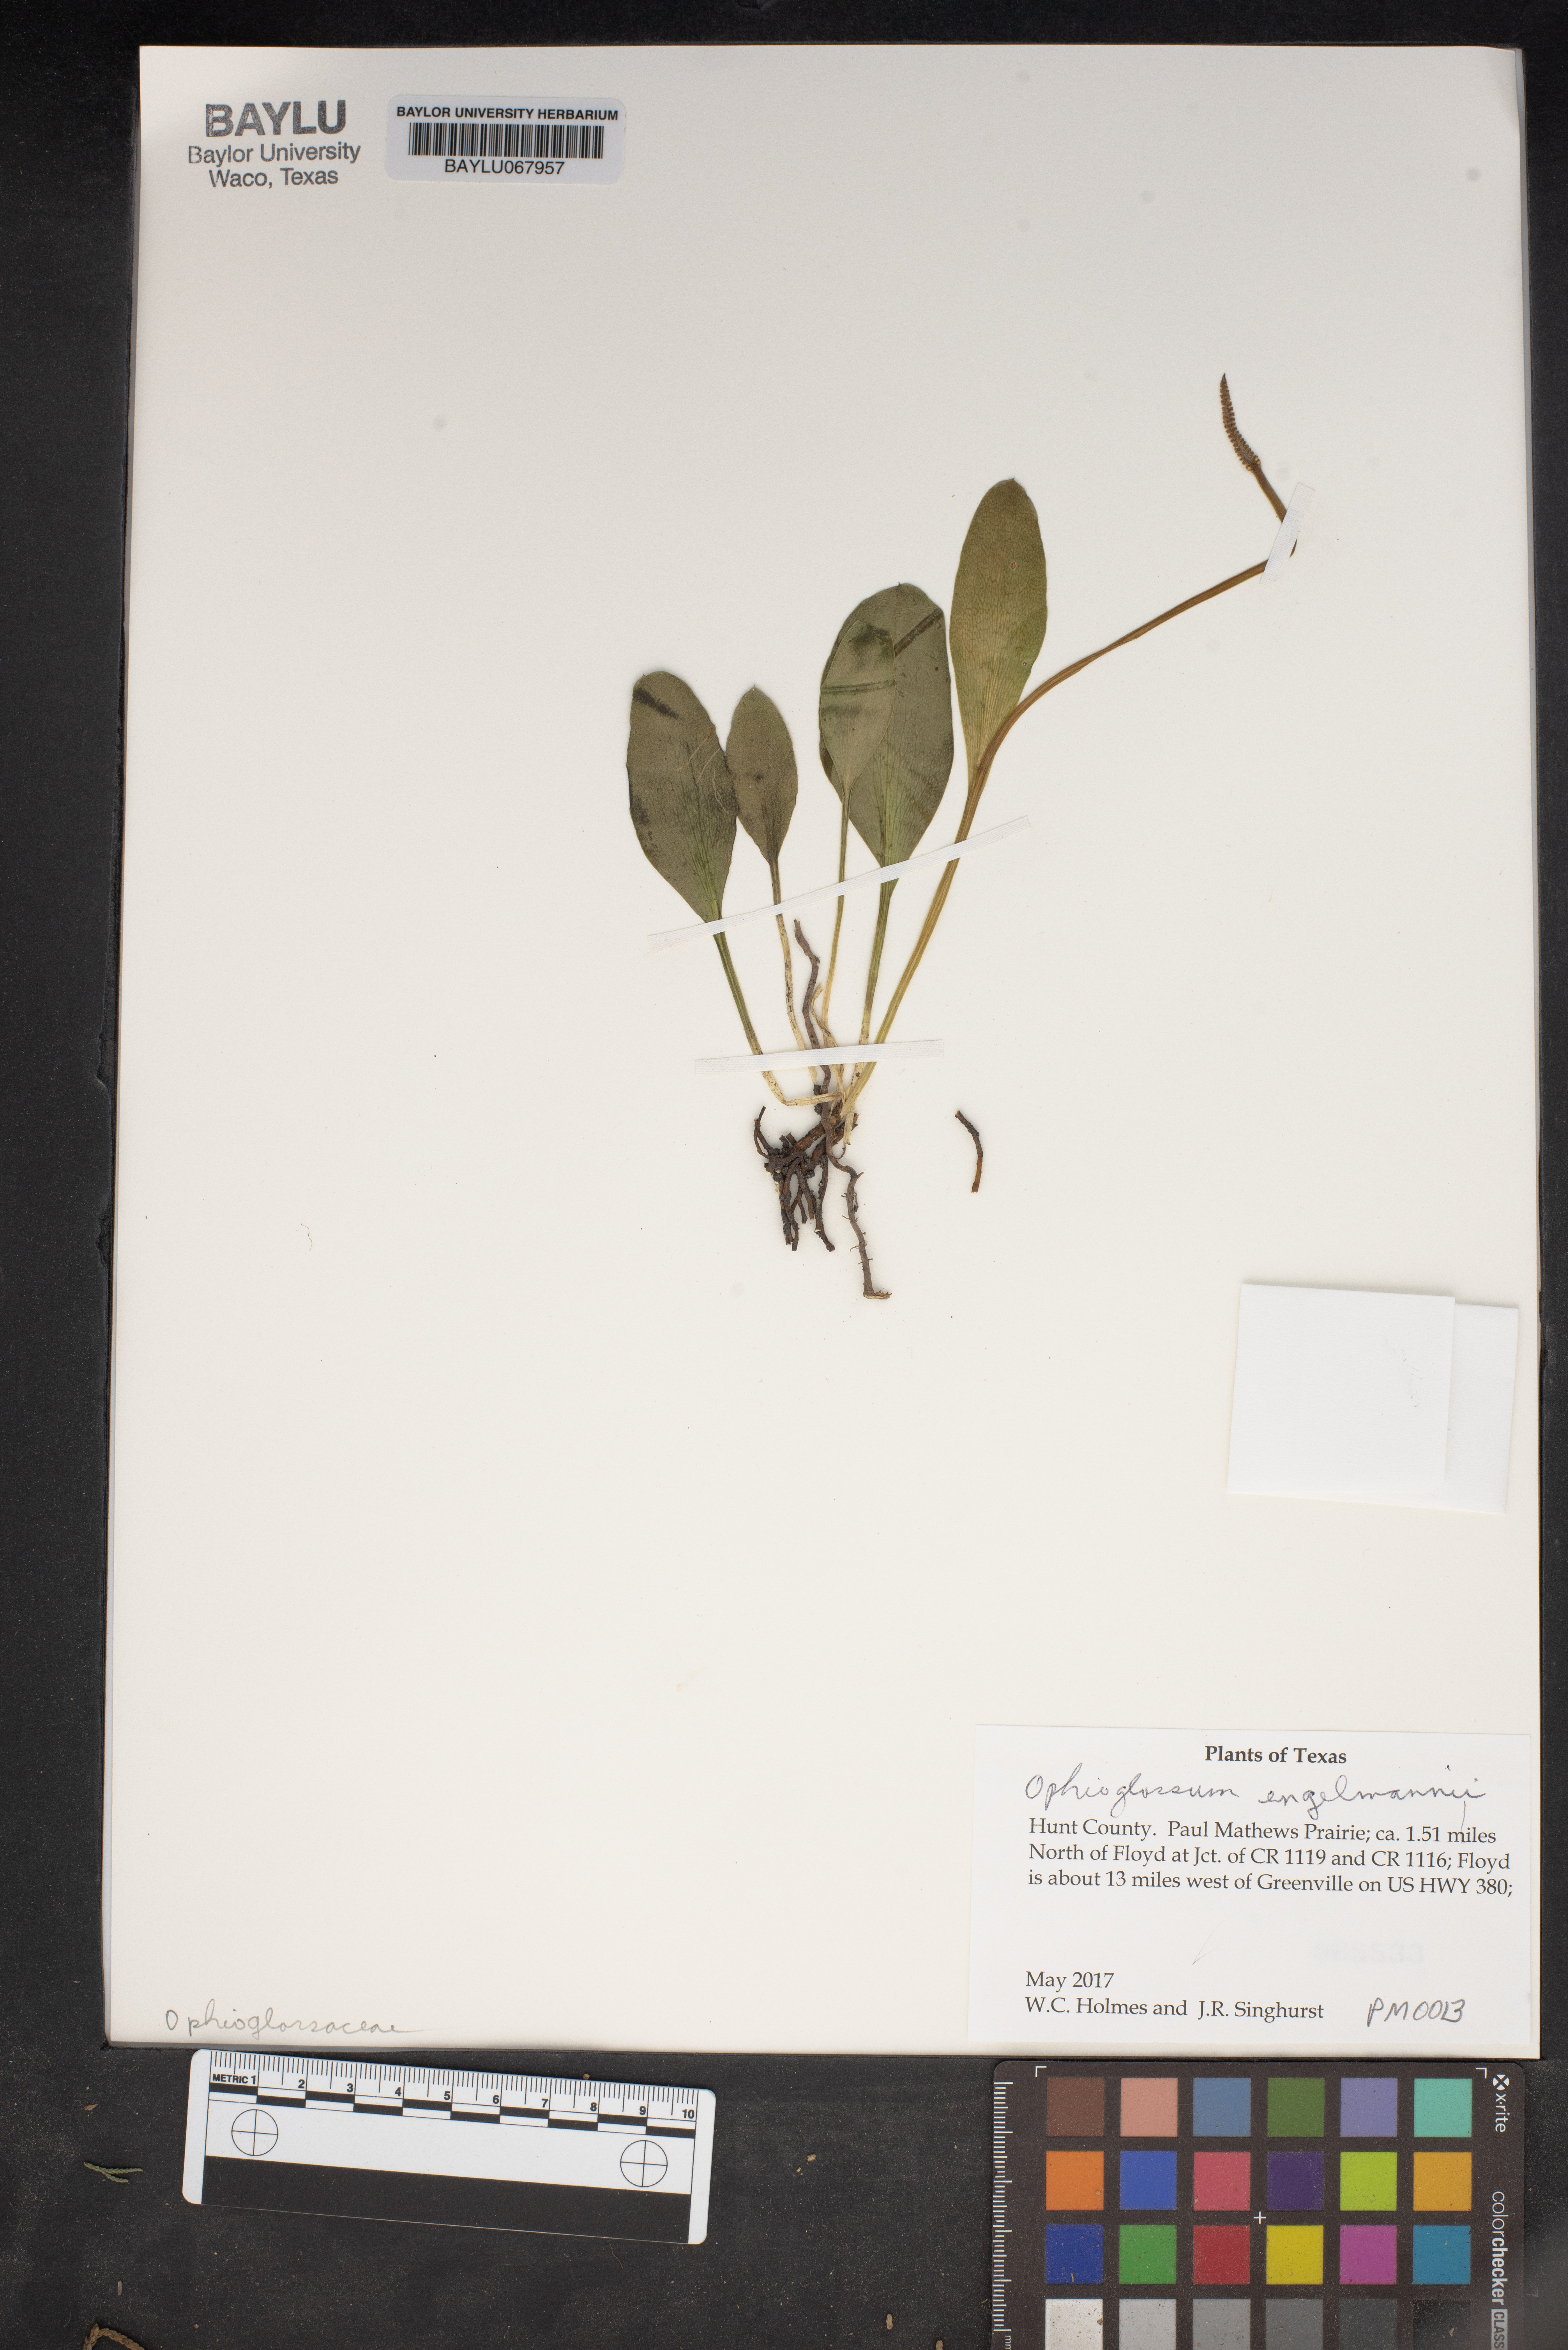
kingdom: Plantae
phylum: Tracheophyta
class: Polypodiopsida
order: Ophioglossales
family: Ophioglossaceae
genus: Ophioglossum
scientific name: Ophioglossum engelmannii
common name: Limestone adder's-tongue
